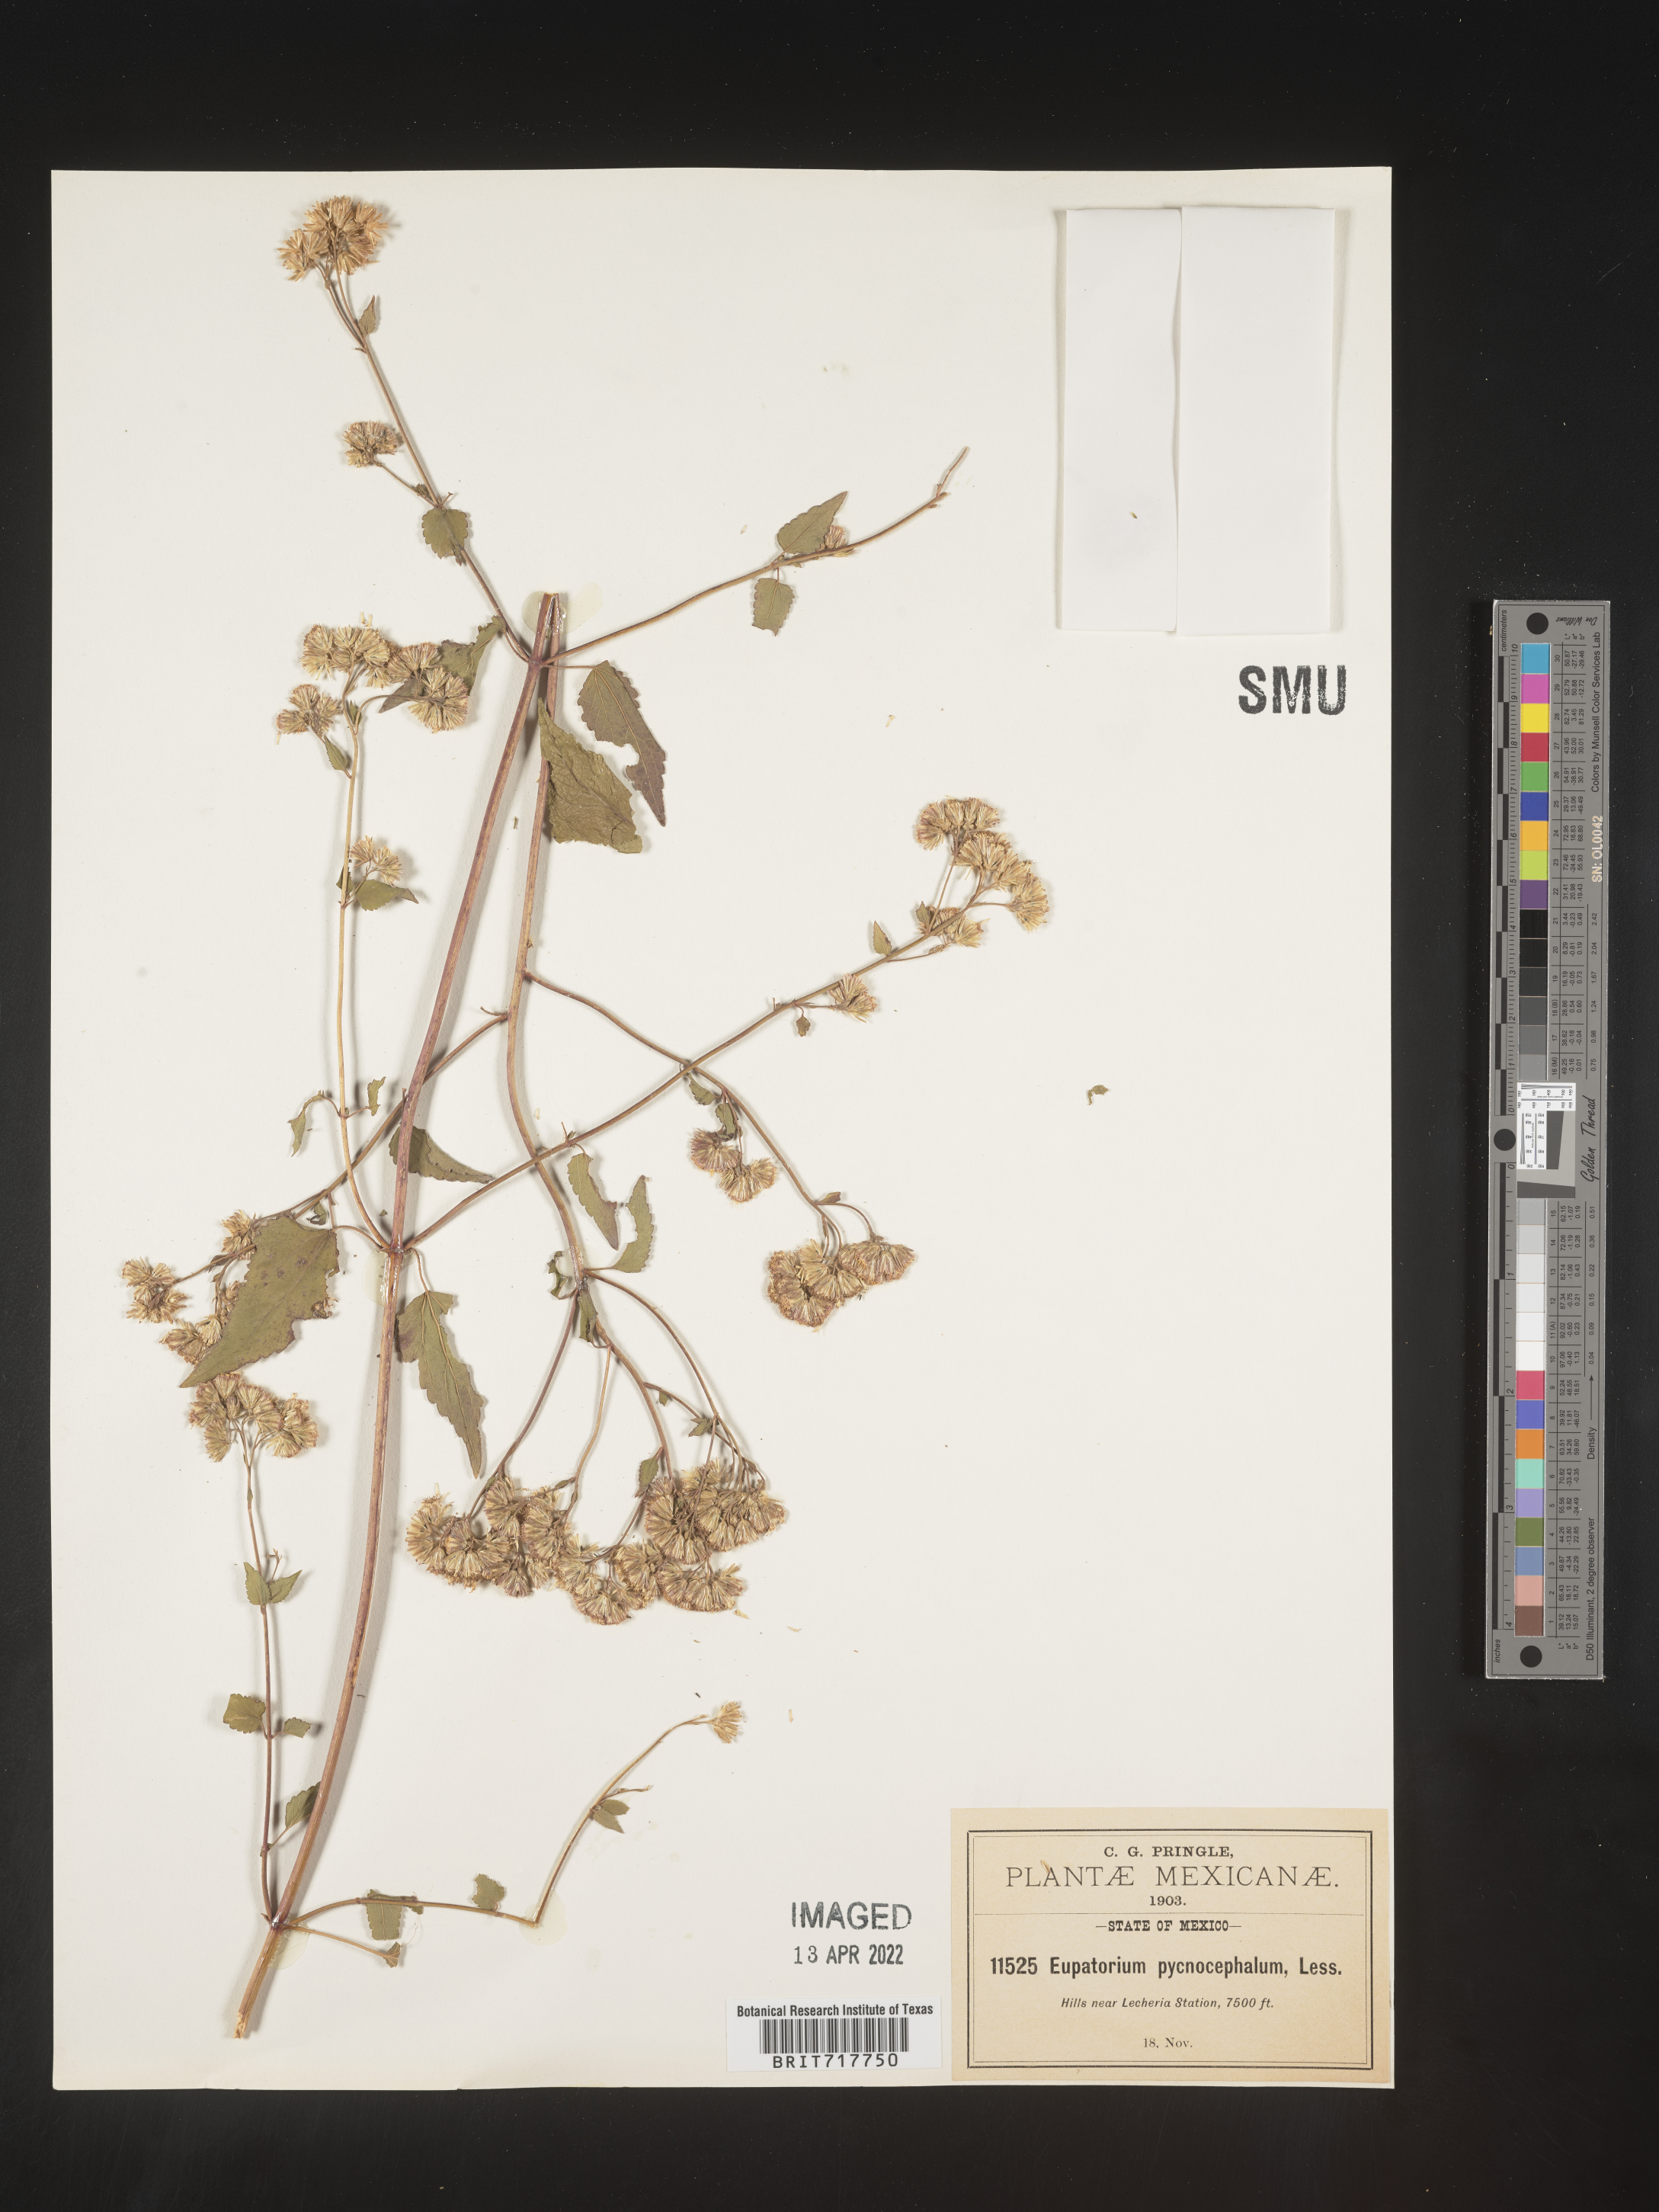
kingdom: Plantae
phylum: Tracheophyta
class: Magnoliopsida
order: Asterales
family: Asteraceae
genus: Fleischmannia
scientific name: Fleischmannia pycnocephala
